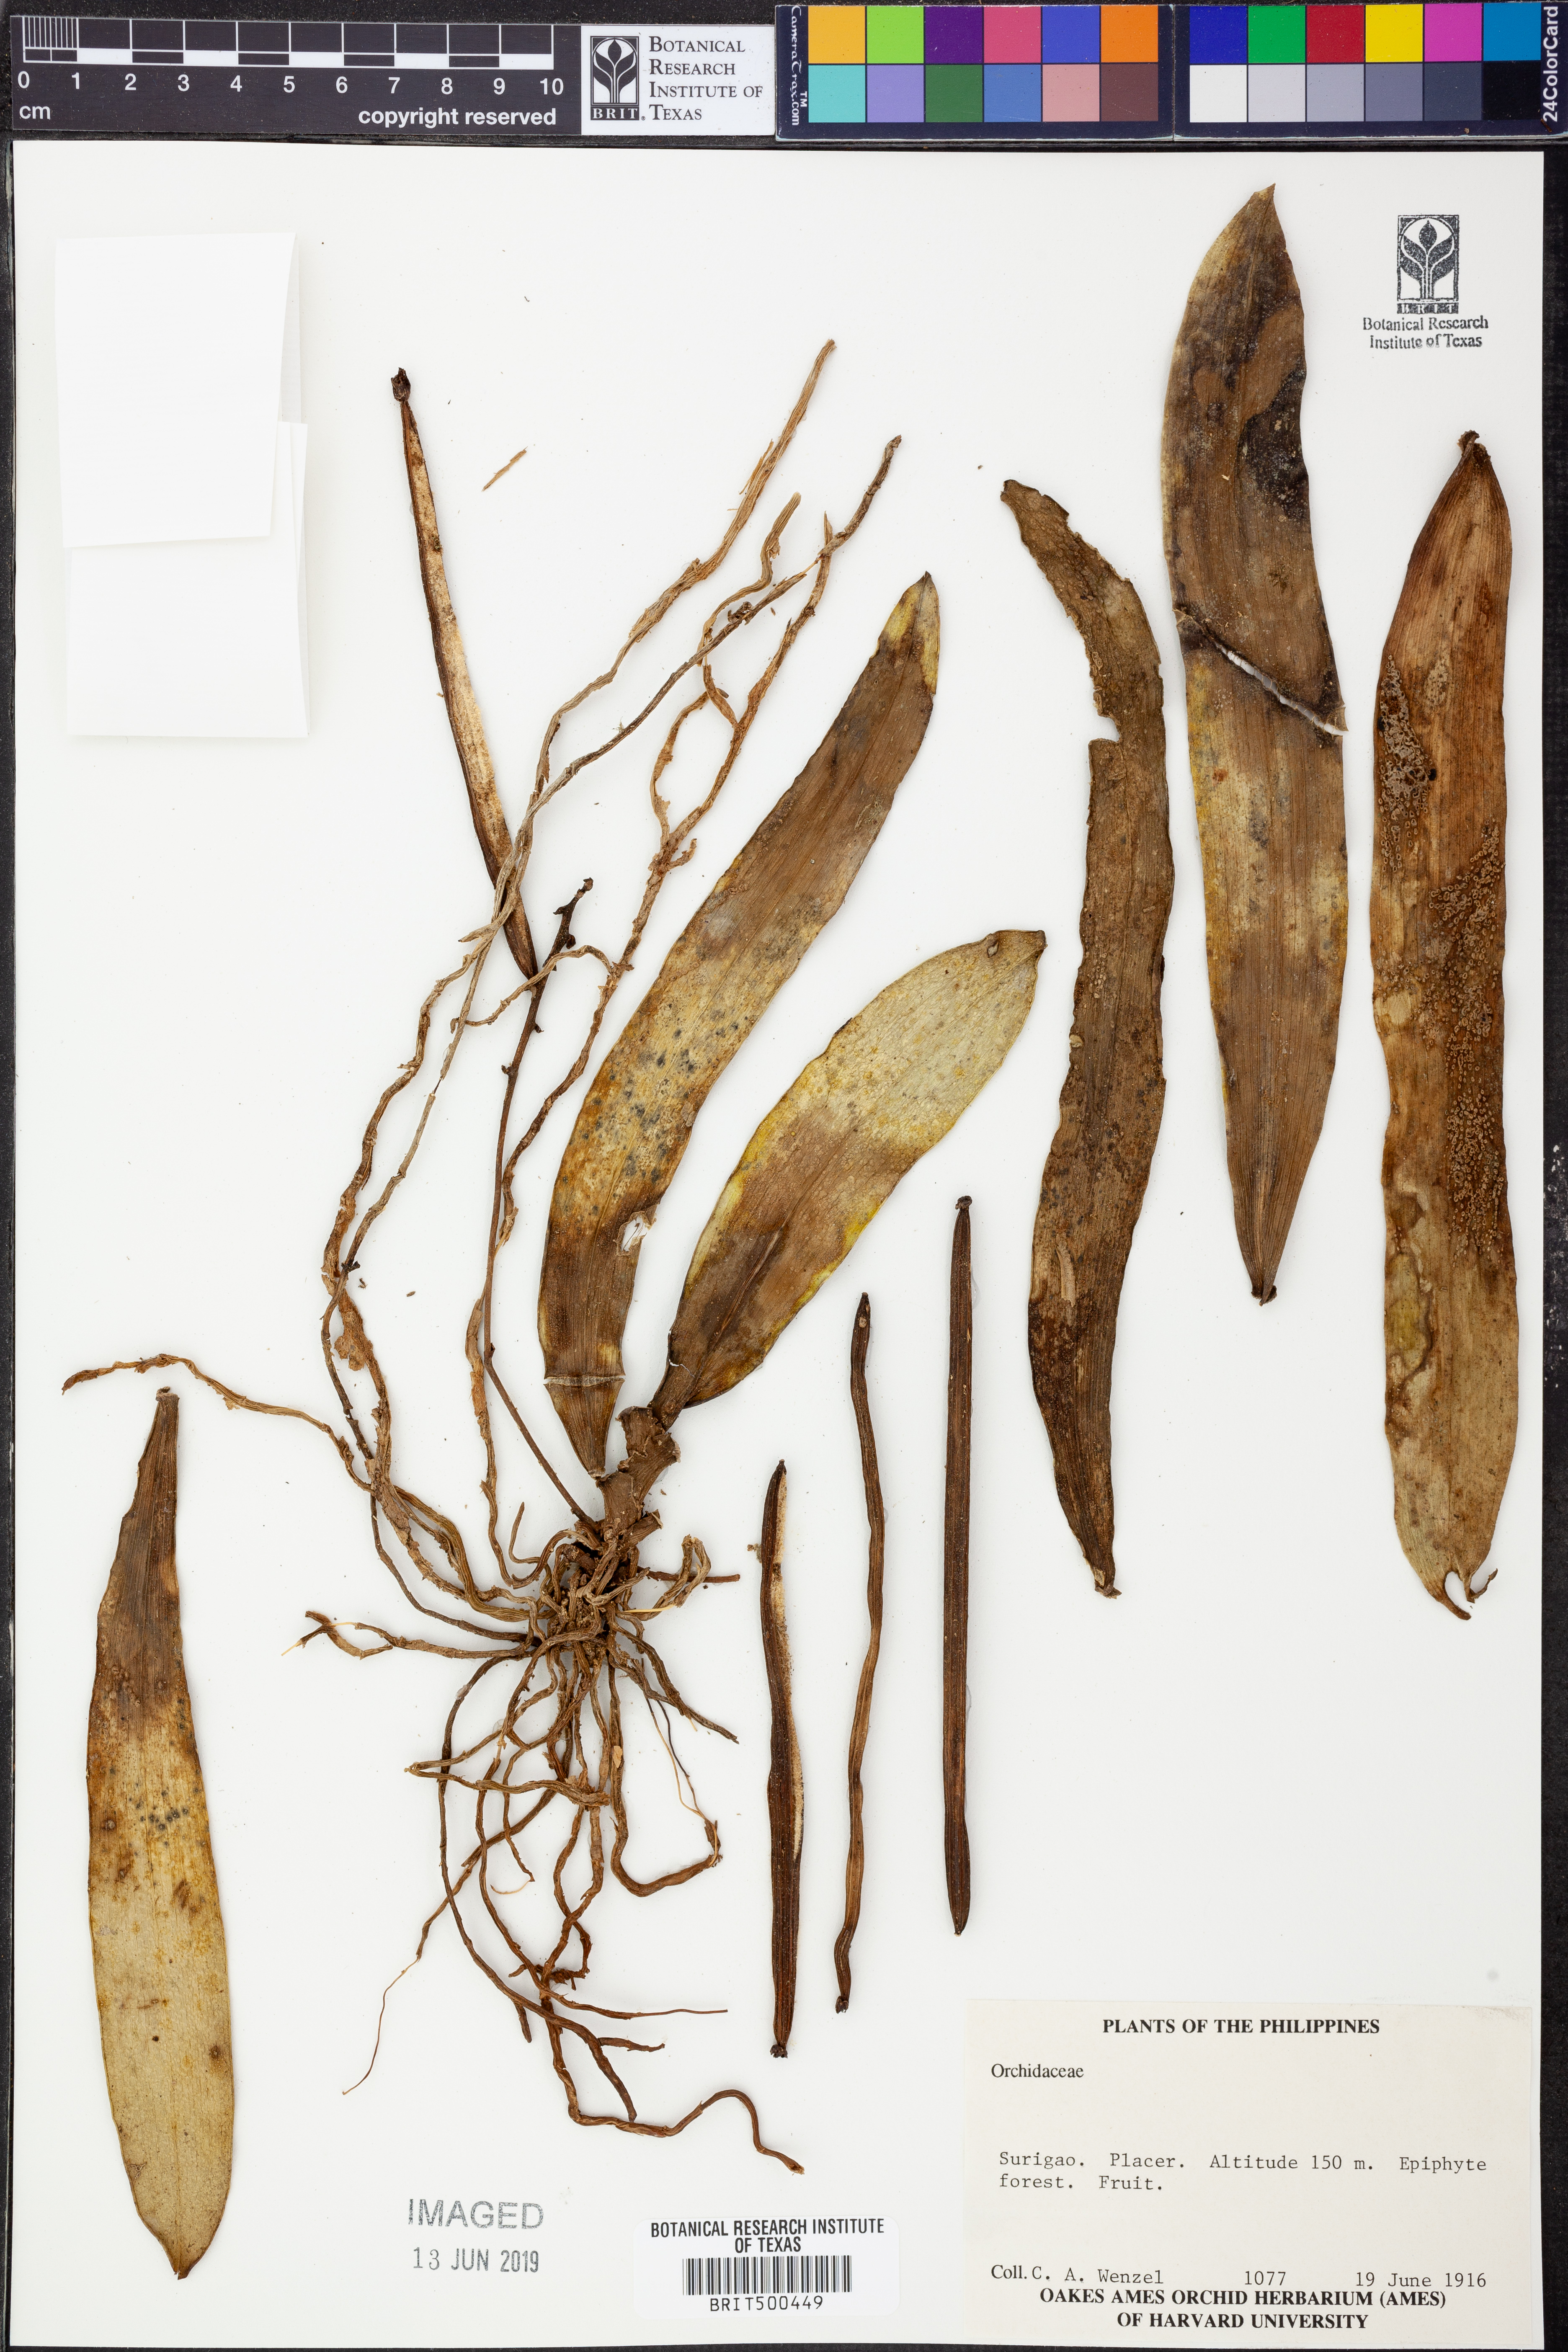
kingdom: Plantae
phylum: Tracheophyta
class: Liliopsida
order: Asparagales
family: Orchidaceae
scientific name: Orchidaceae
